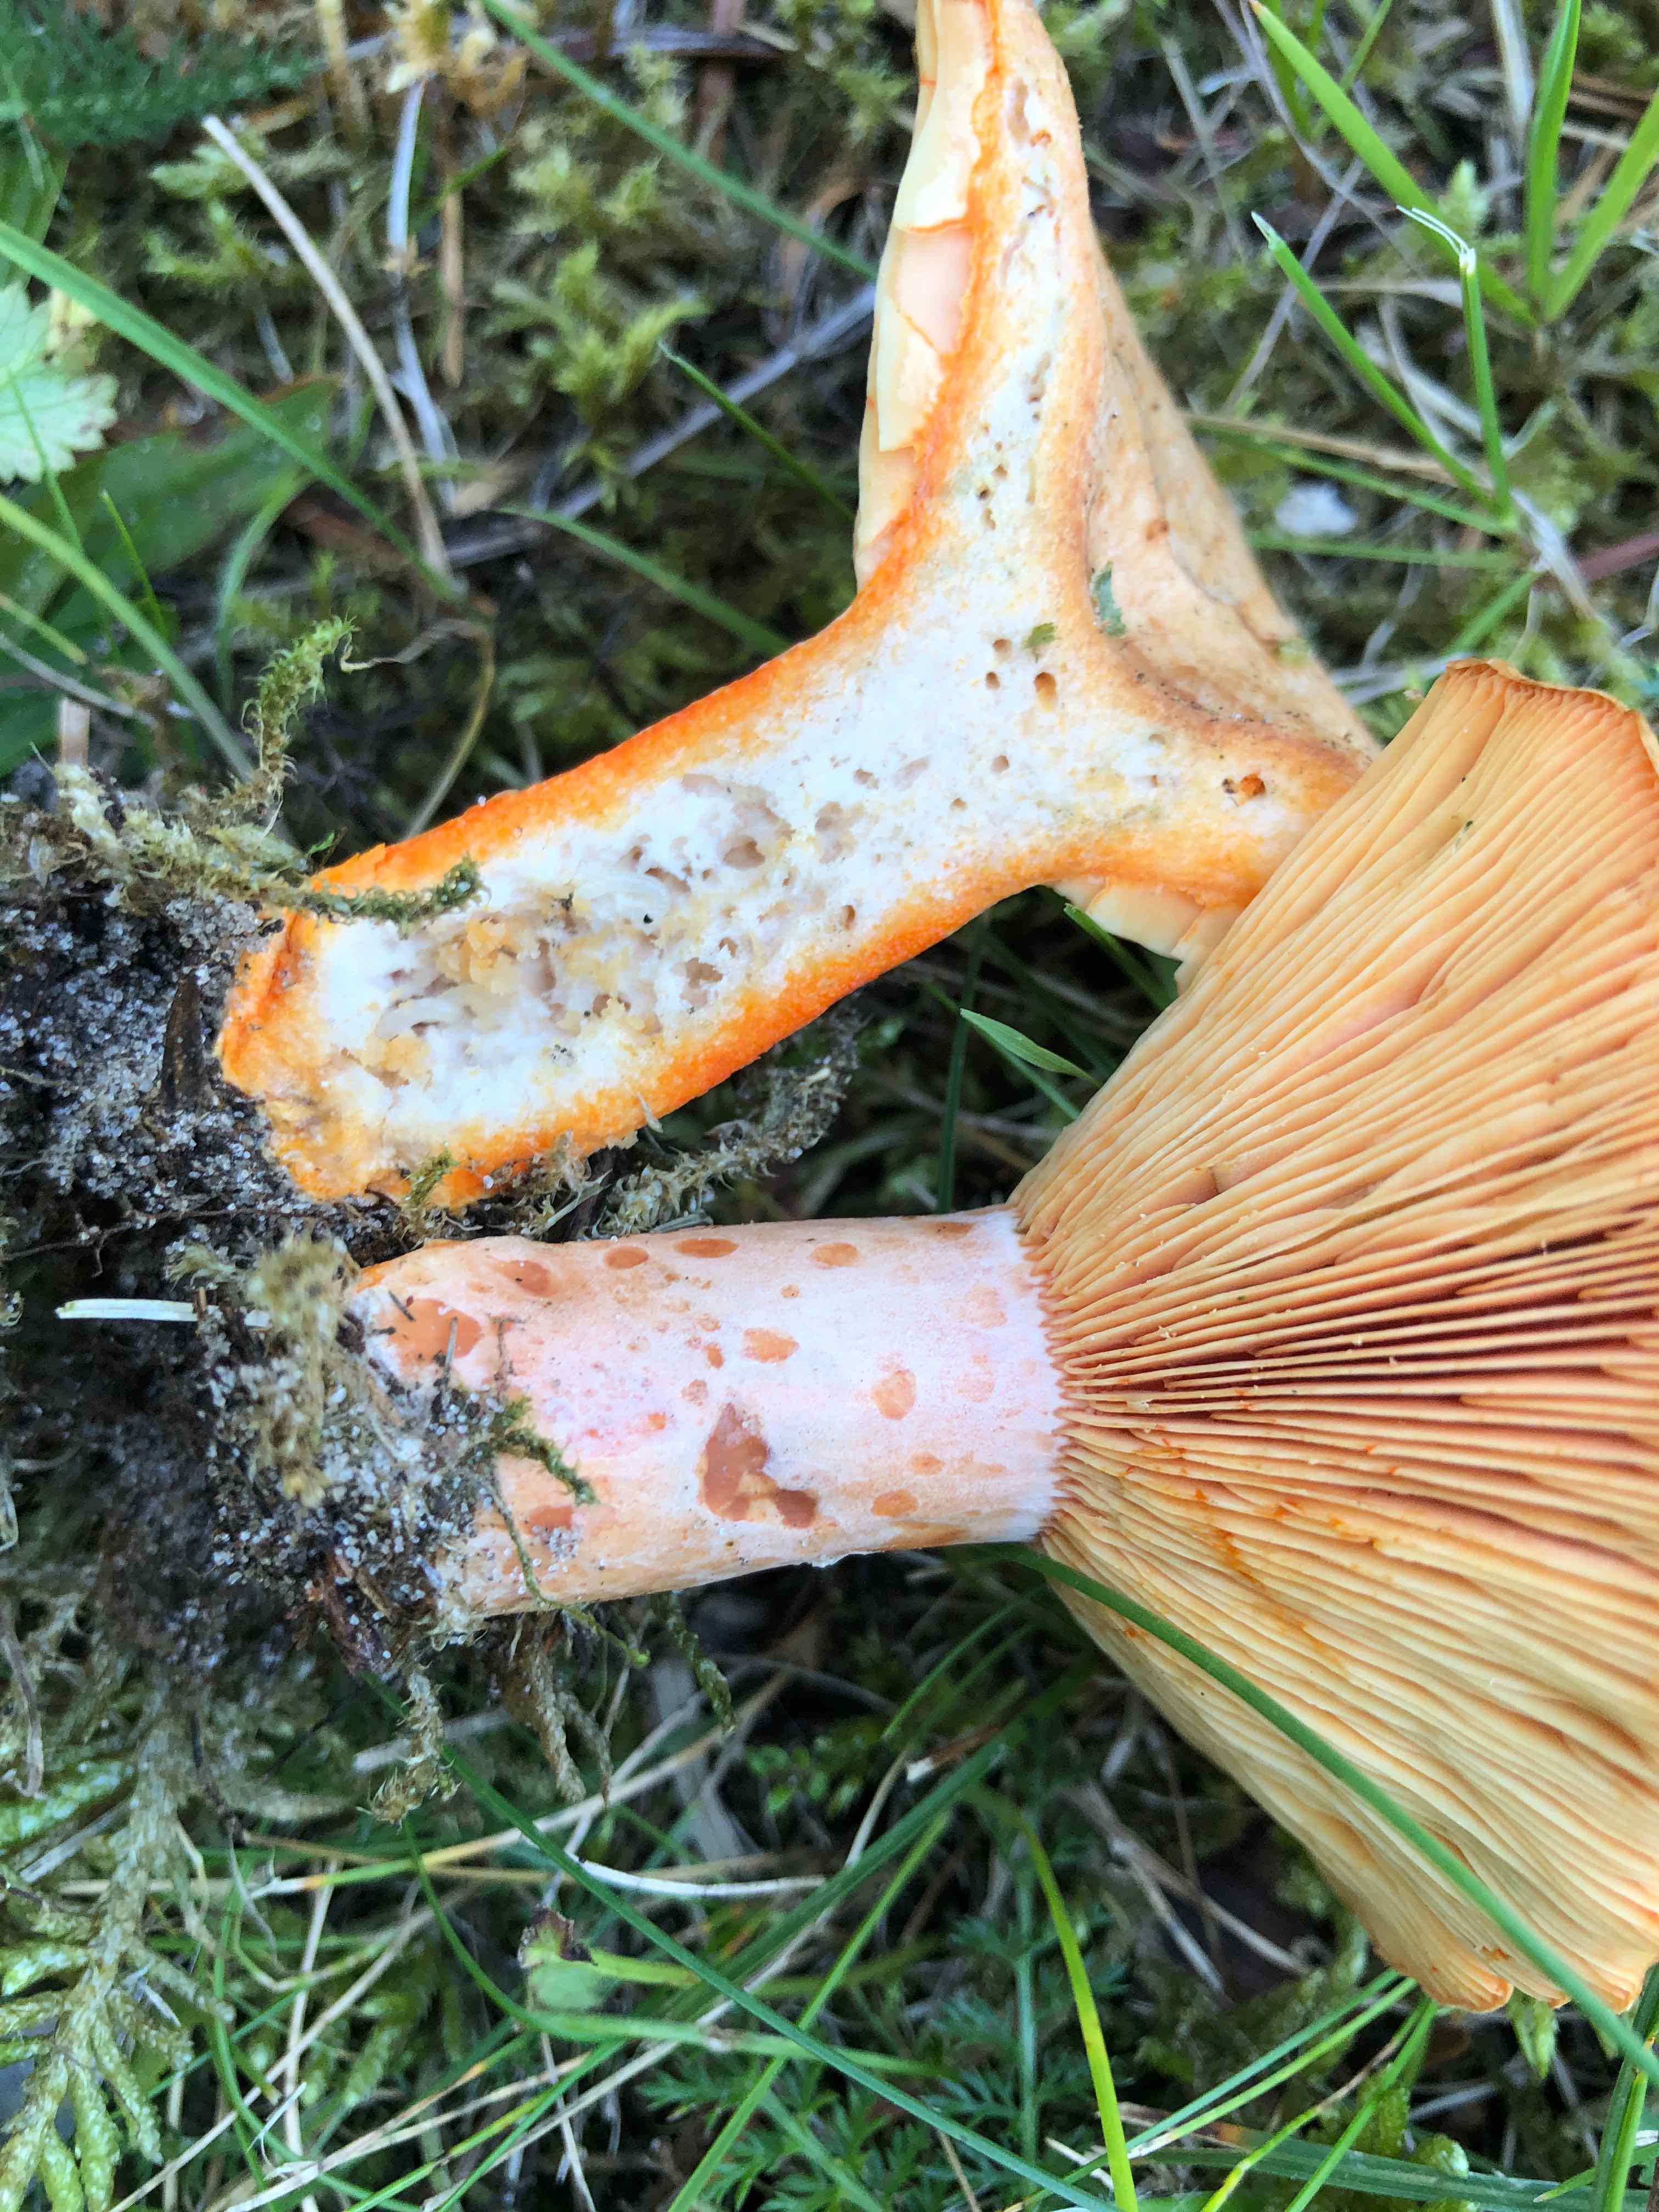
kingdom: Fungi
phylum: Basidiomycota
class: Agaricomycetes
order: Russulales
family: Russulaceae
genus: Lactarius
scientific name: Lactarius deliciosus
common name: velsmagende mælkehat
